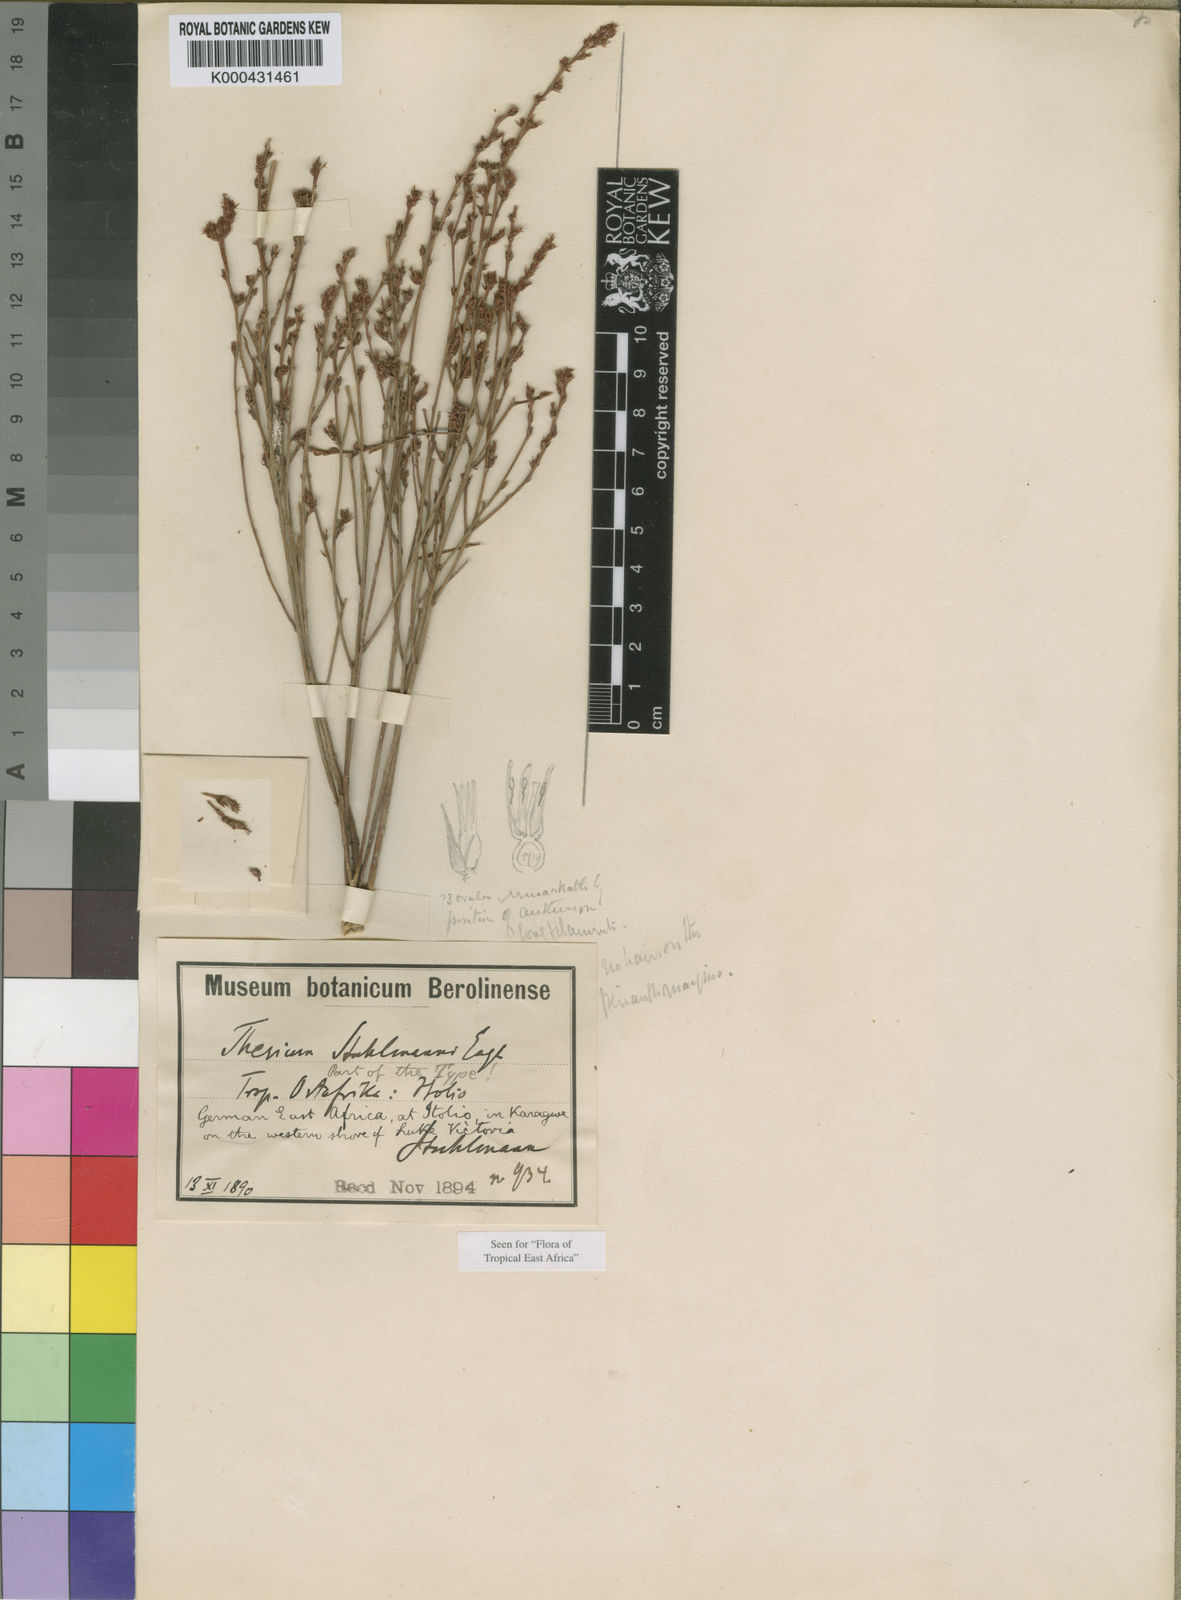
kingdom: Plantae
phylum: Tracheophyta
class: Magnoliopsida
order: Santalales
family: Thesiaceae
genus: Thesium
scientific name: Thesium stuhlmannii
